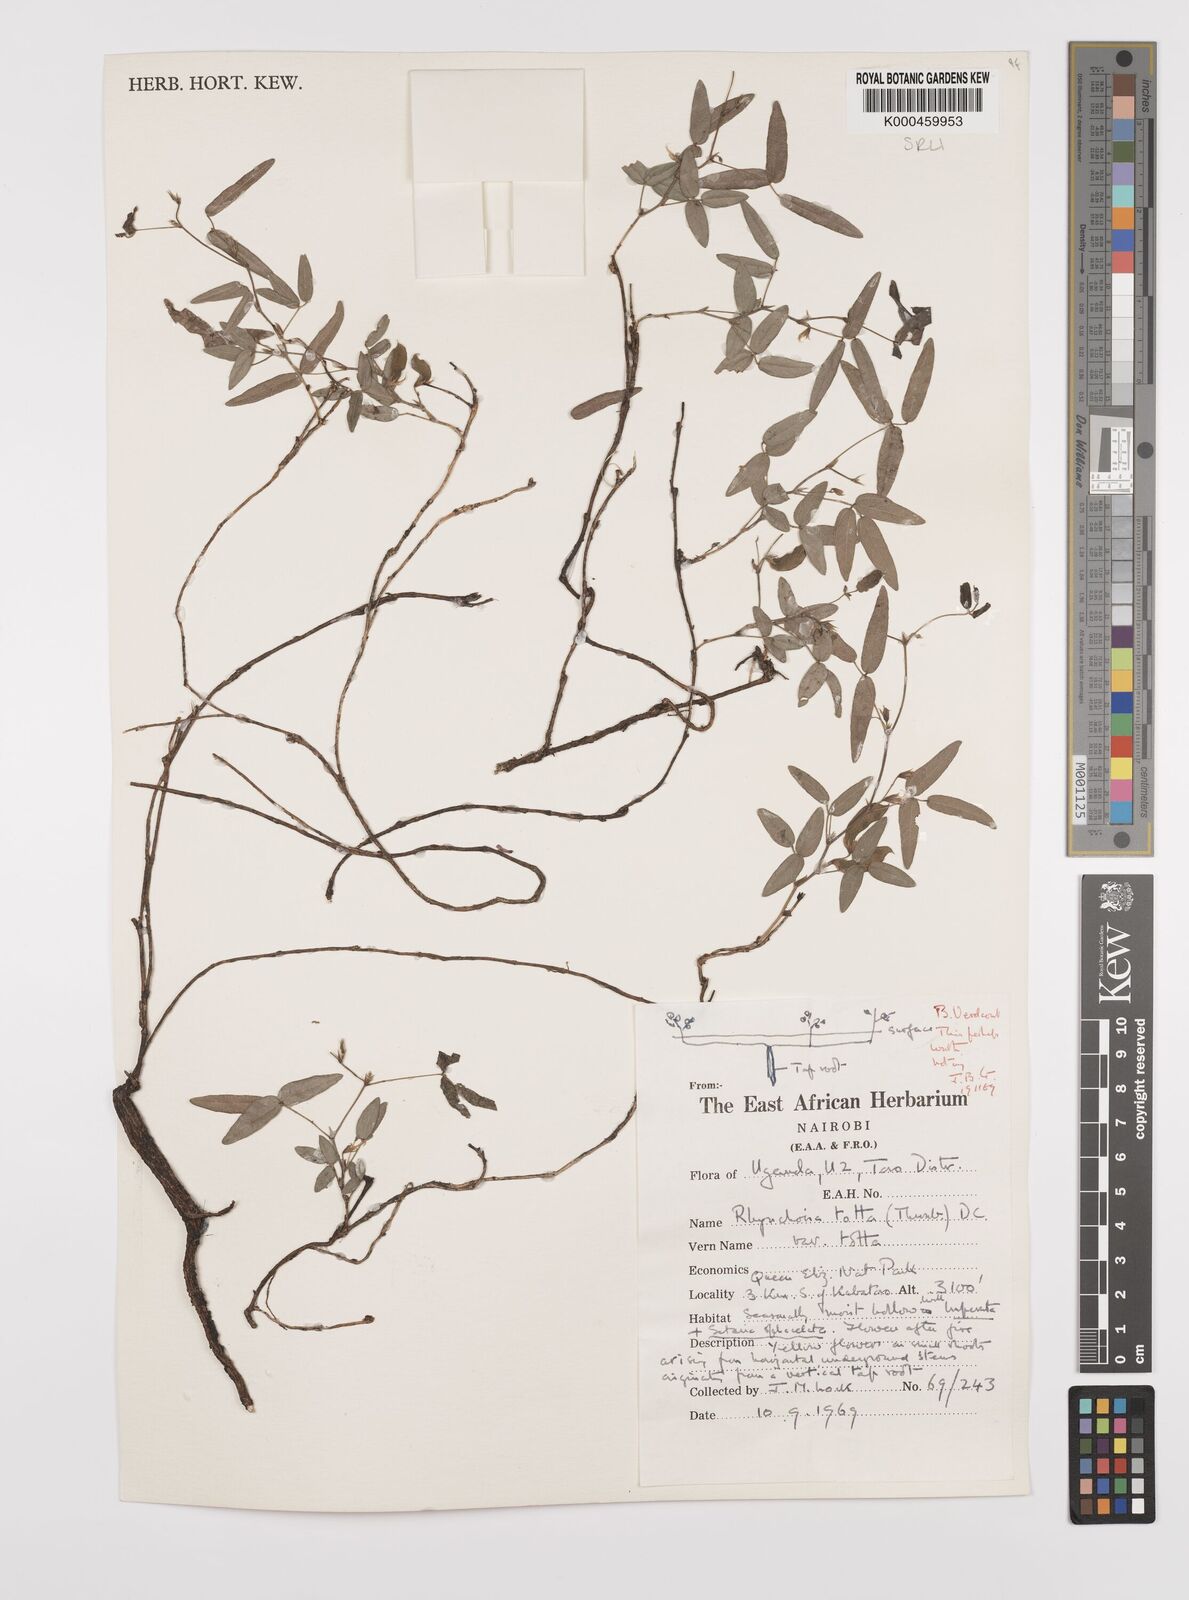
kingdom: Plantae
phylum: Tracheophyta
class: Magnoliopsida
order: Fabales
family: Fabaceae
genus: Rhynchosia
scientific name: Rhynchosia totta
